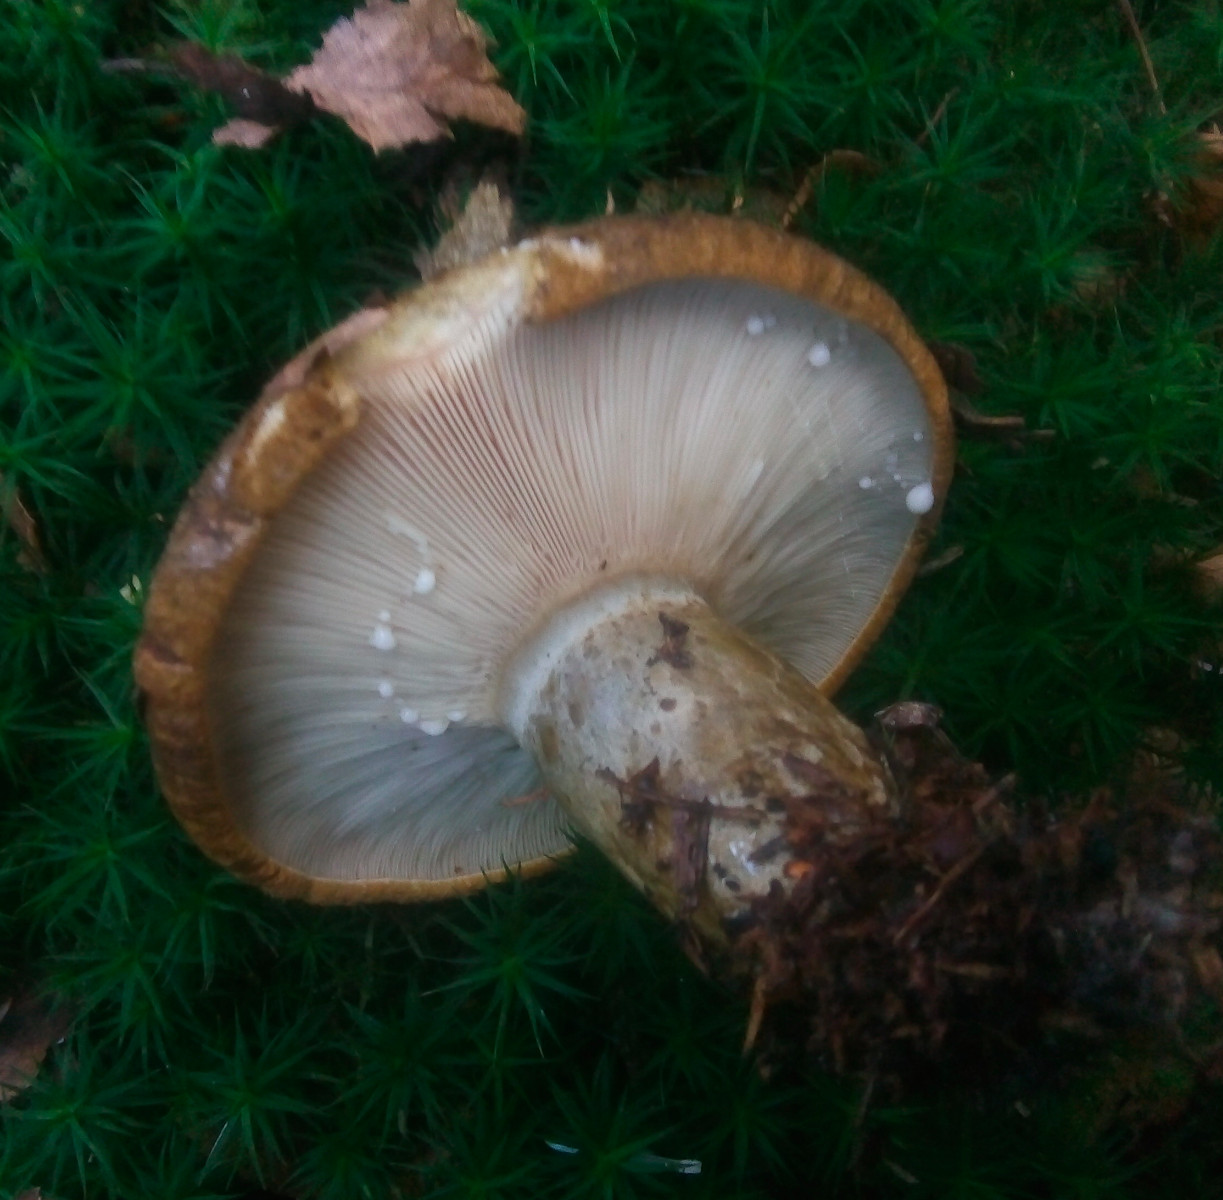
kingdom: Fungi
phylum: Basidiomycota
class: Agaricomycetes
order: Russulales
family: Russulaceae
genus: Lactarius
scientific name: Lactarius necator
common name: manddraber-mælkehat
